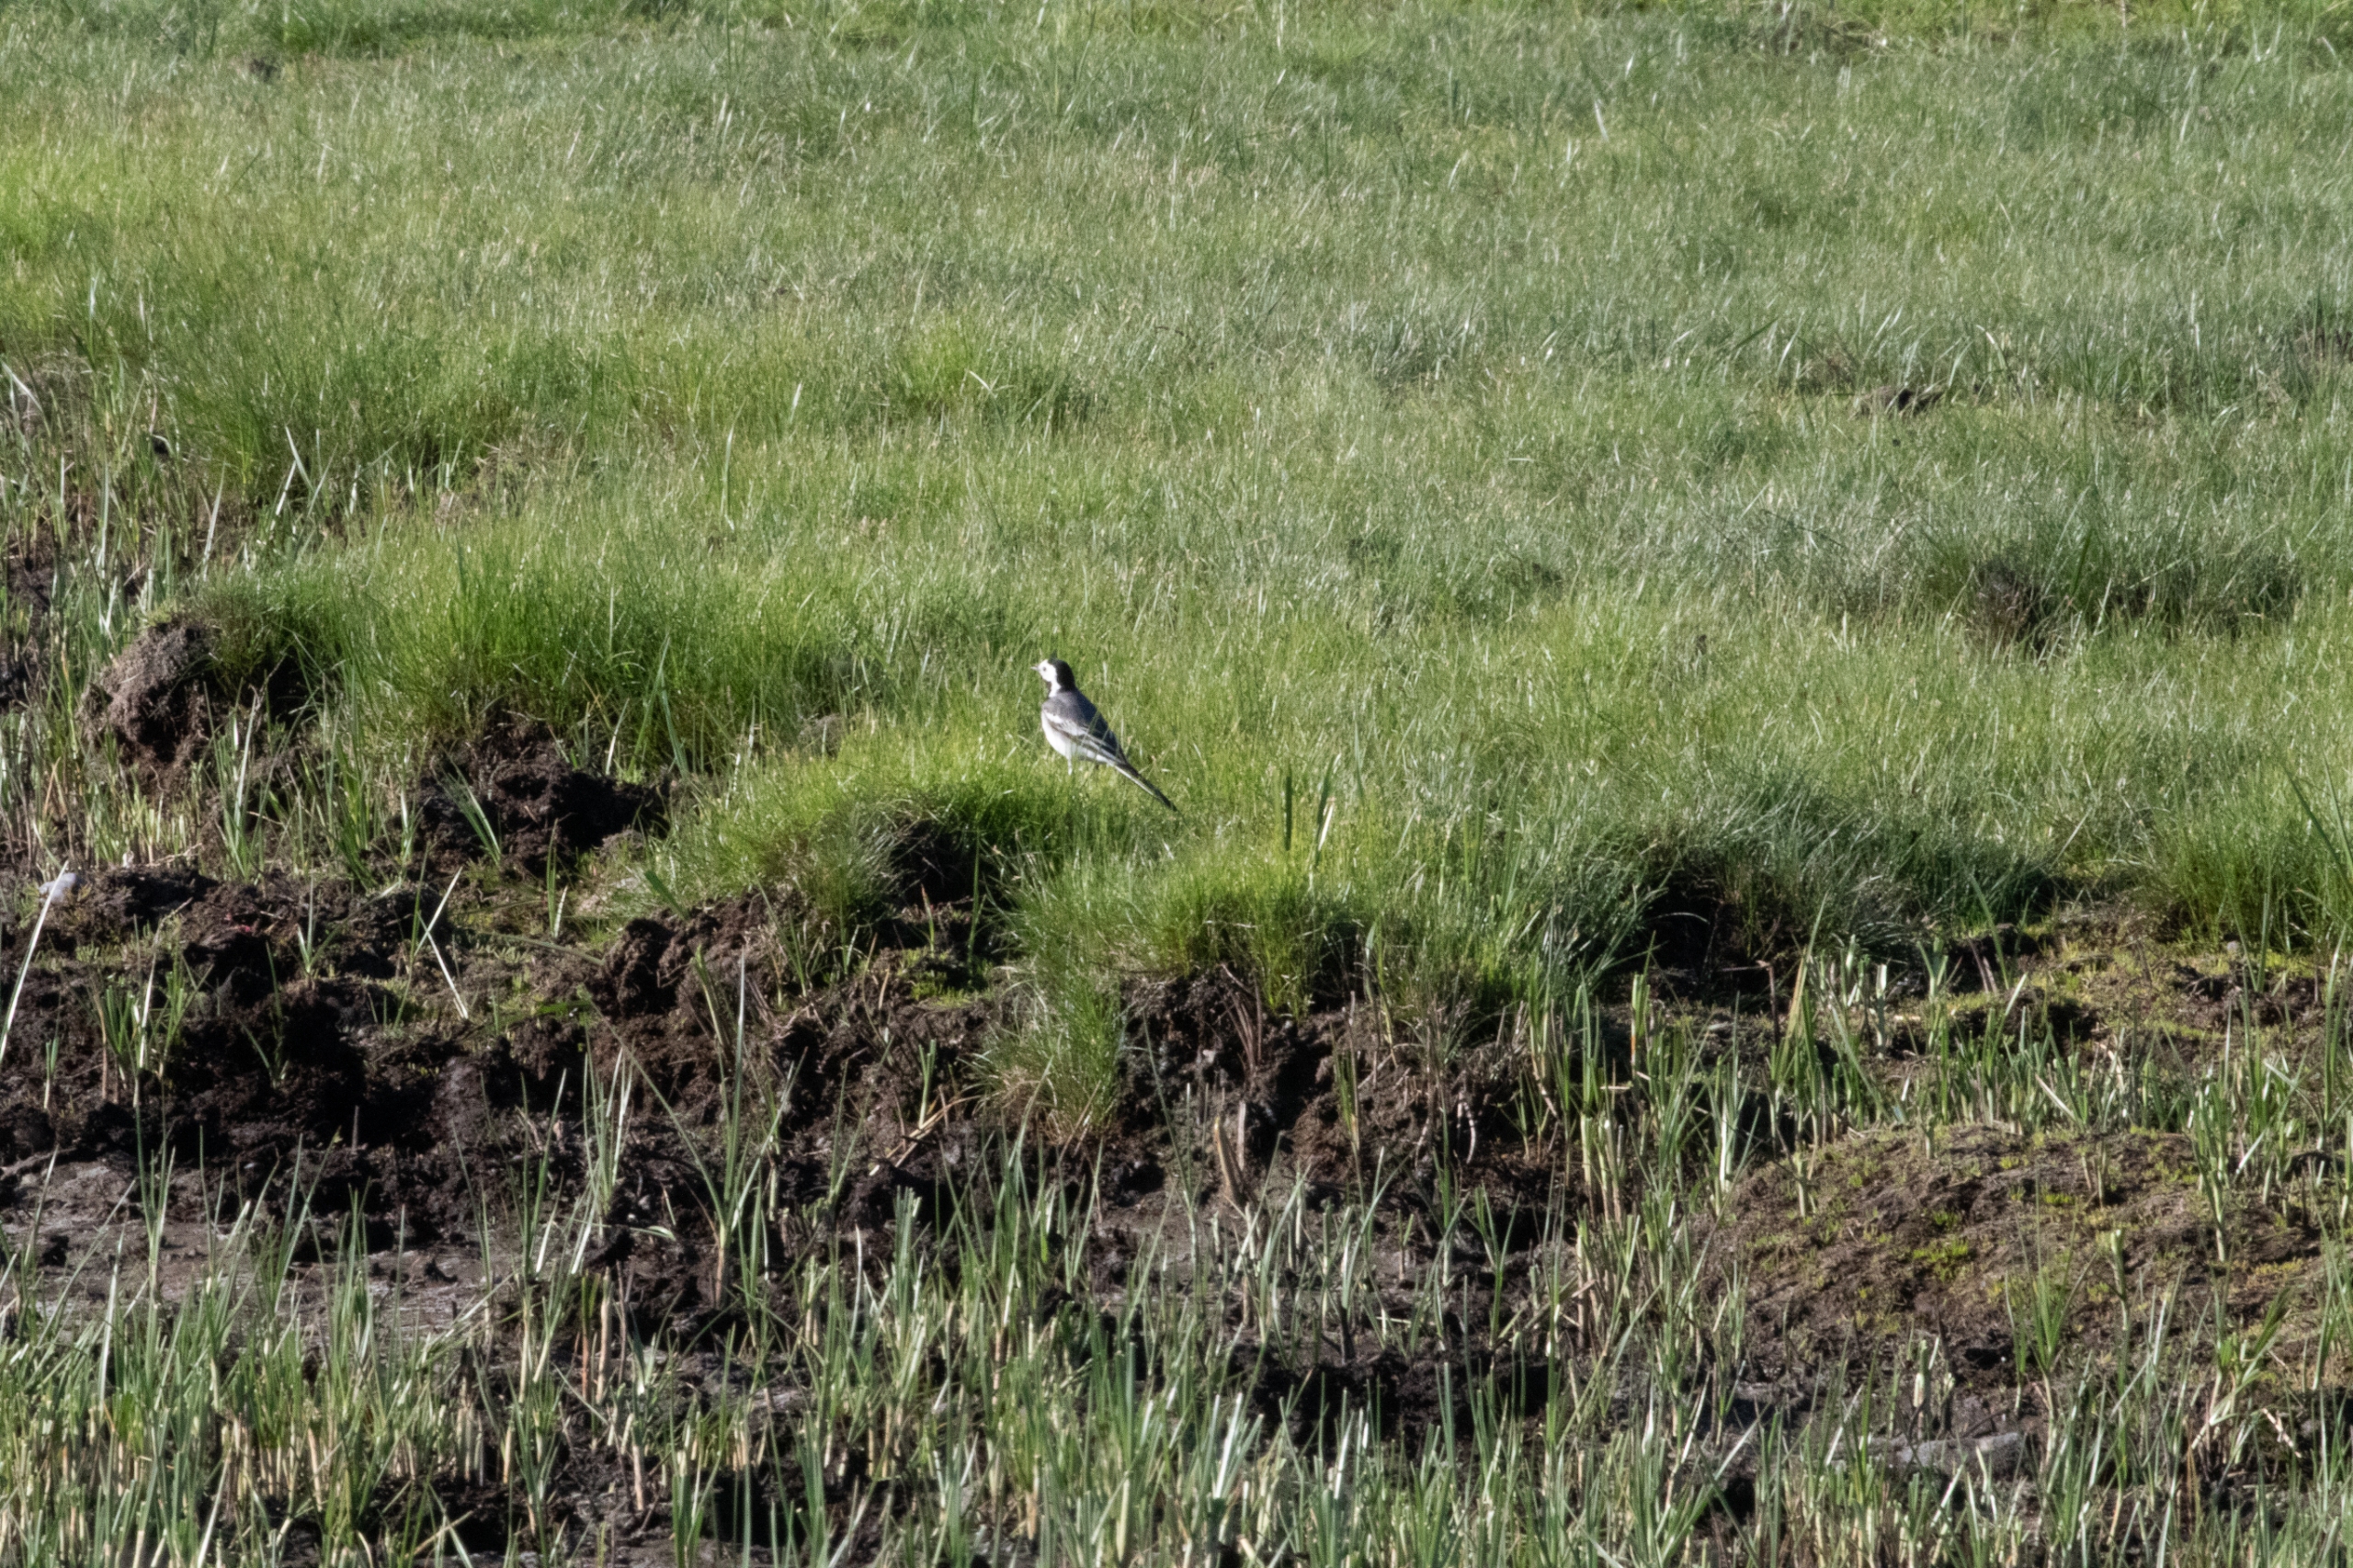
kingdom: Animalia
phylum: Chordata
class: Aves
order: Passeriformes
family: Motacillidae
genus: Motacilla
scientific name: Motacilla alba
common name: Hvid vipstjert
